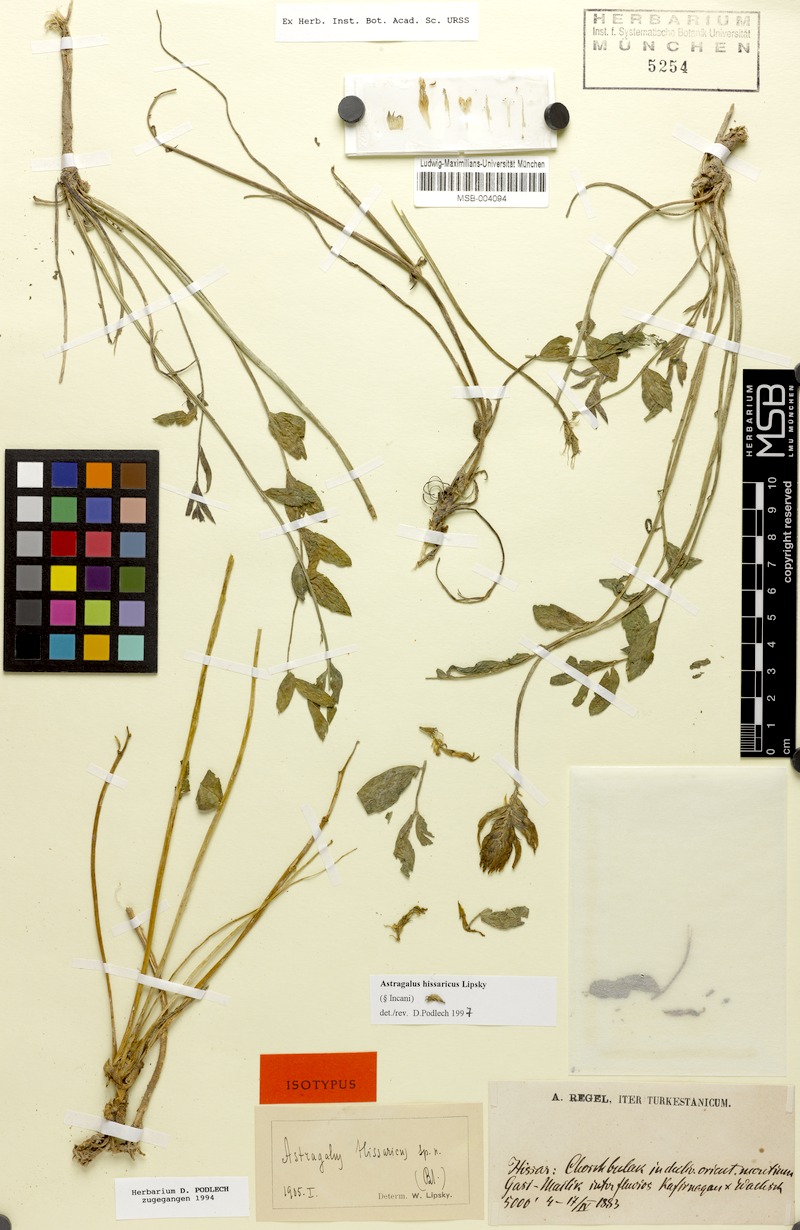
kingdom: Plantae
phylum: Tracheophyta
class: Magnoliopsida
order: Fabales
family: Fabaceae
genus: Astragalus
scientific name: Astragalus hissaricus
